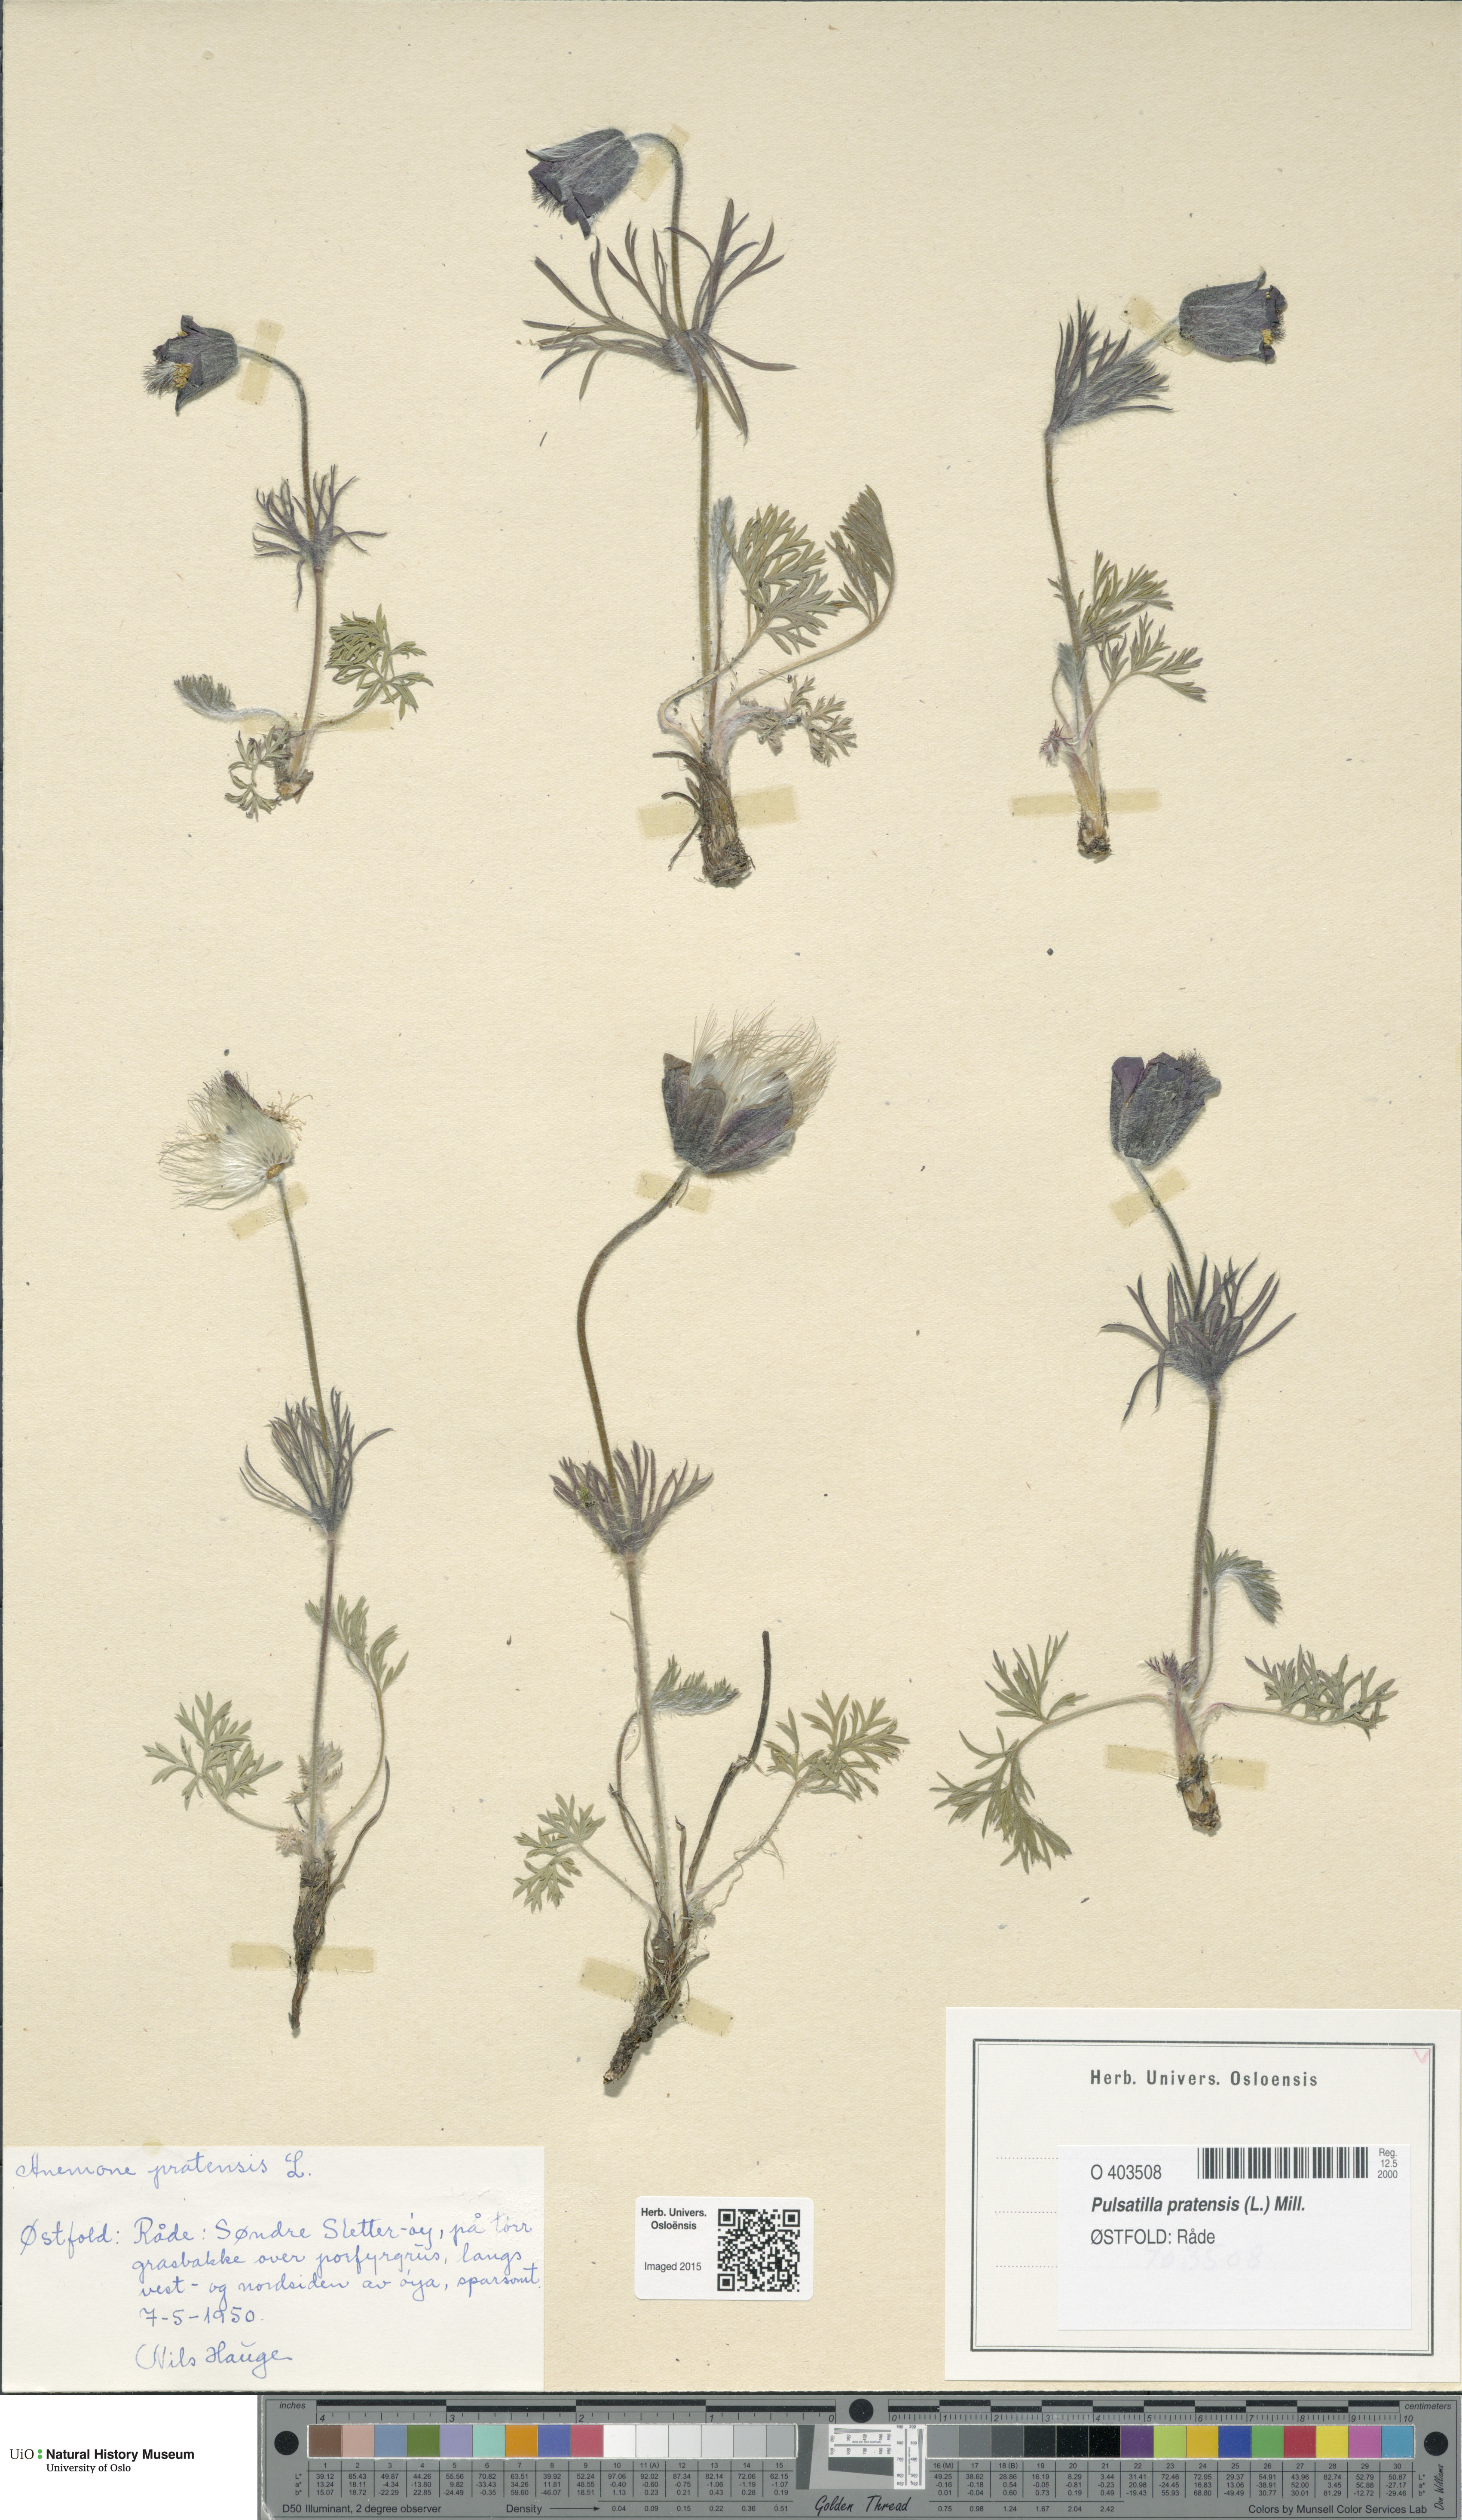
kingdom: Plantae
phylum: Tracheophyta
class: Magnoliopsida
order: Ranunculales
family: Ranunculaceae
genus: Pulsatilla
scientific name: Pulsatilla pratensis
